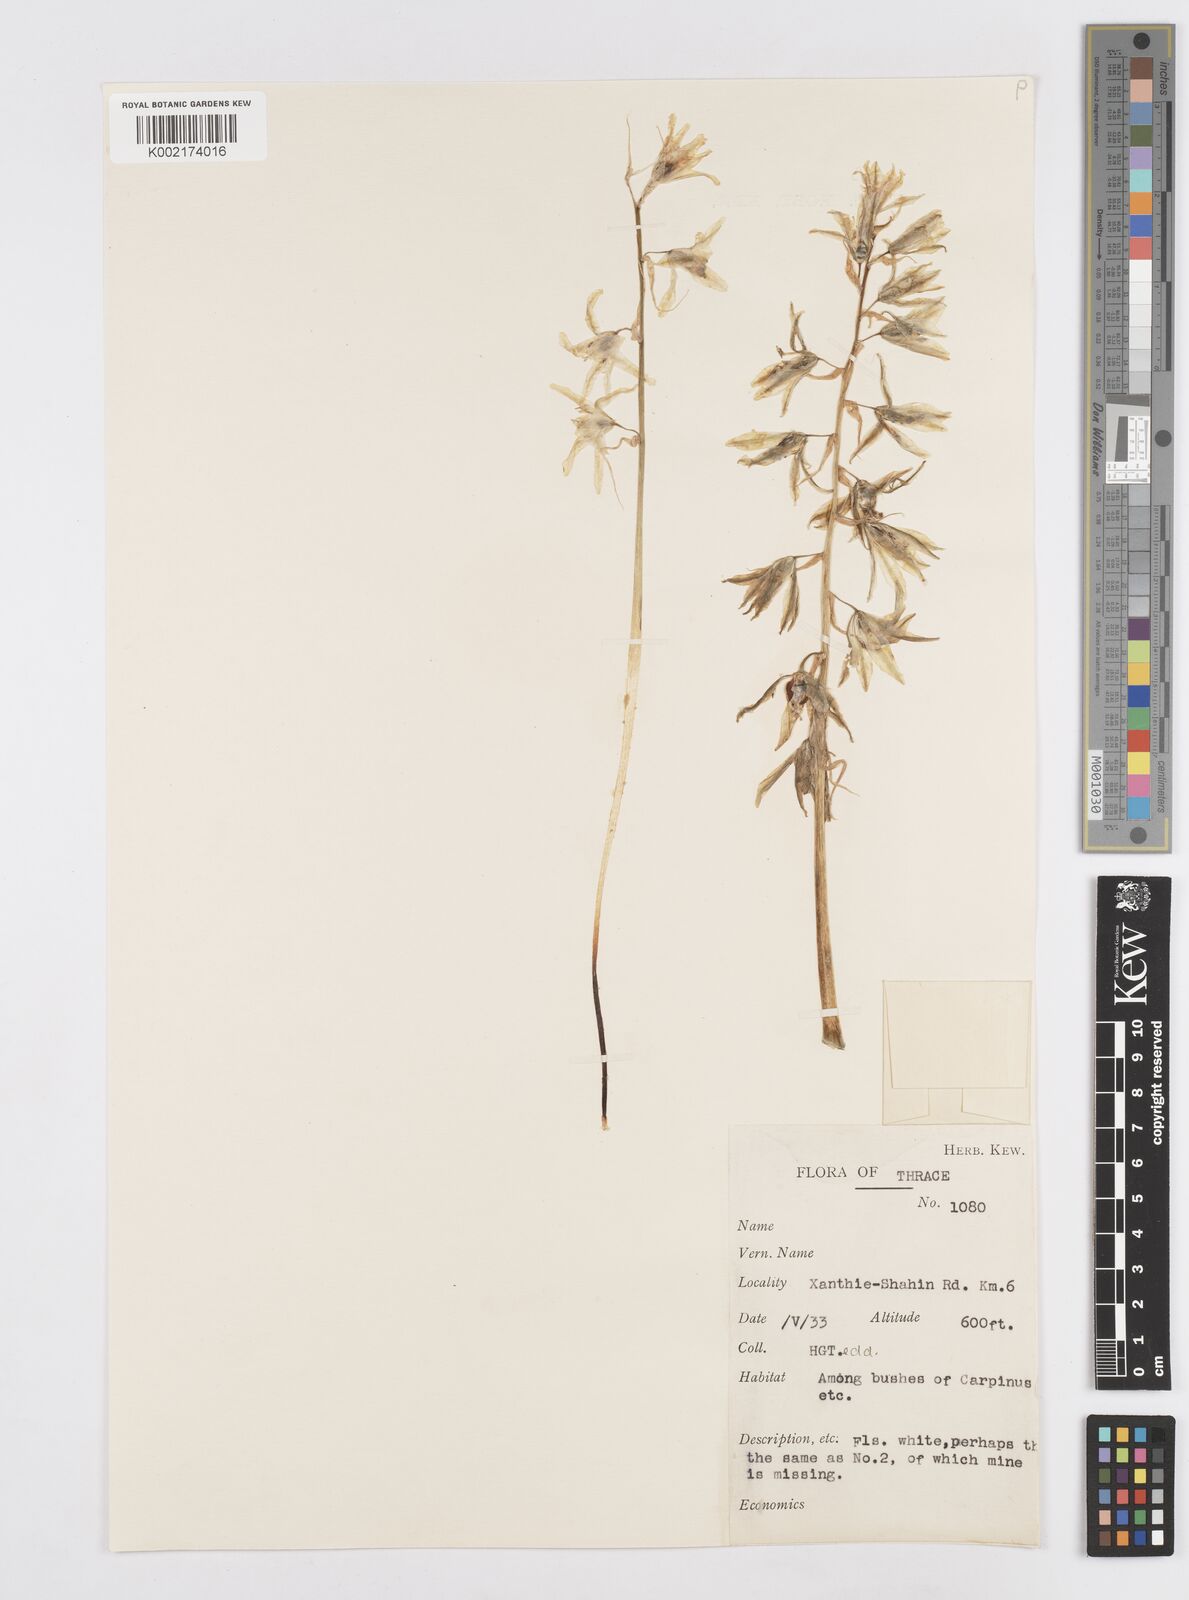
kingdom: Plantae
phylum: Tracheophyta
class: Liliopsida
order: Asparagales
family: Asparagaceae
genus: Ornithogalum
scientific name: Ornithogalum nutans
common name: Drooping star-of-bethlehem
